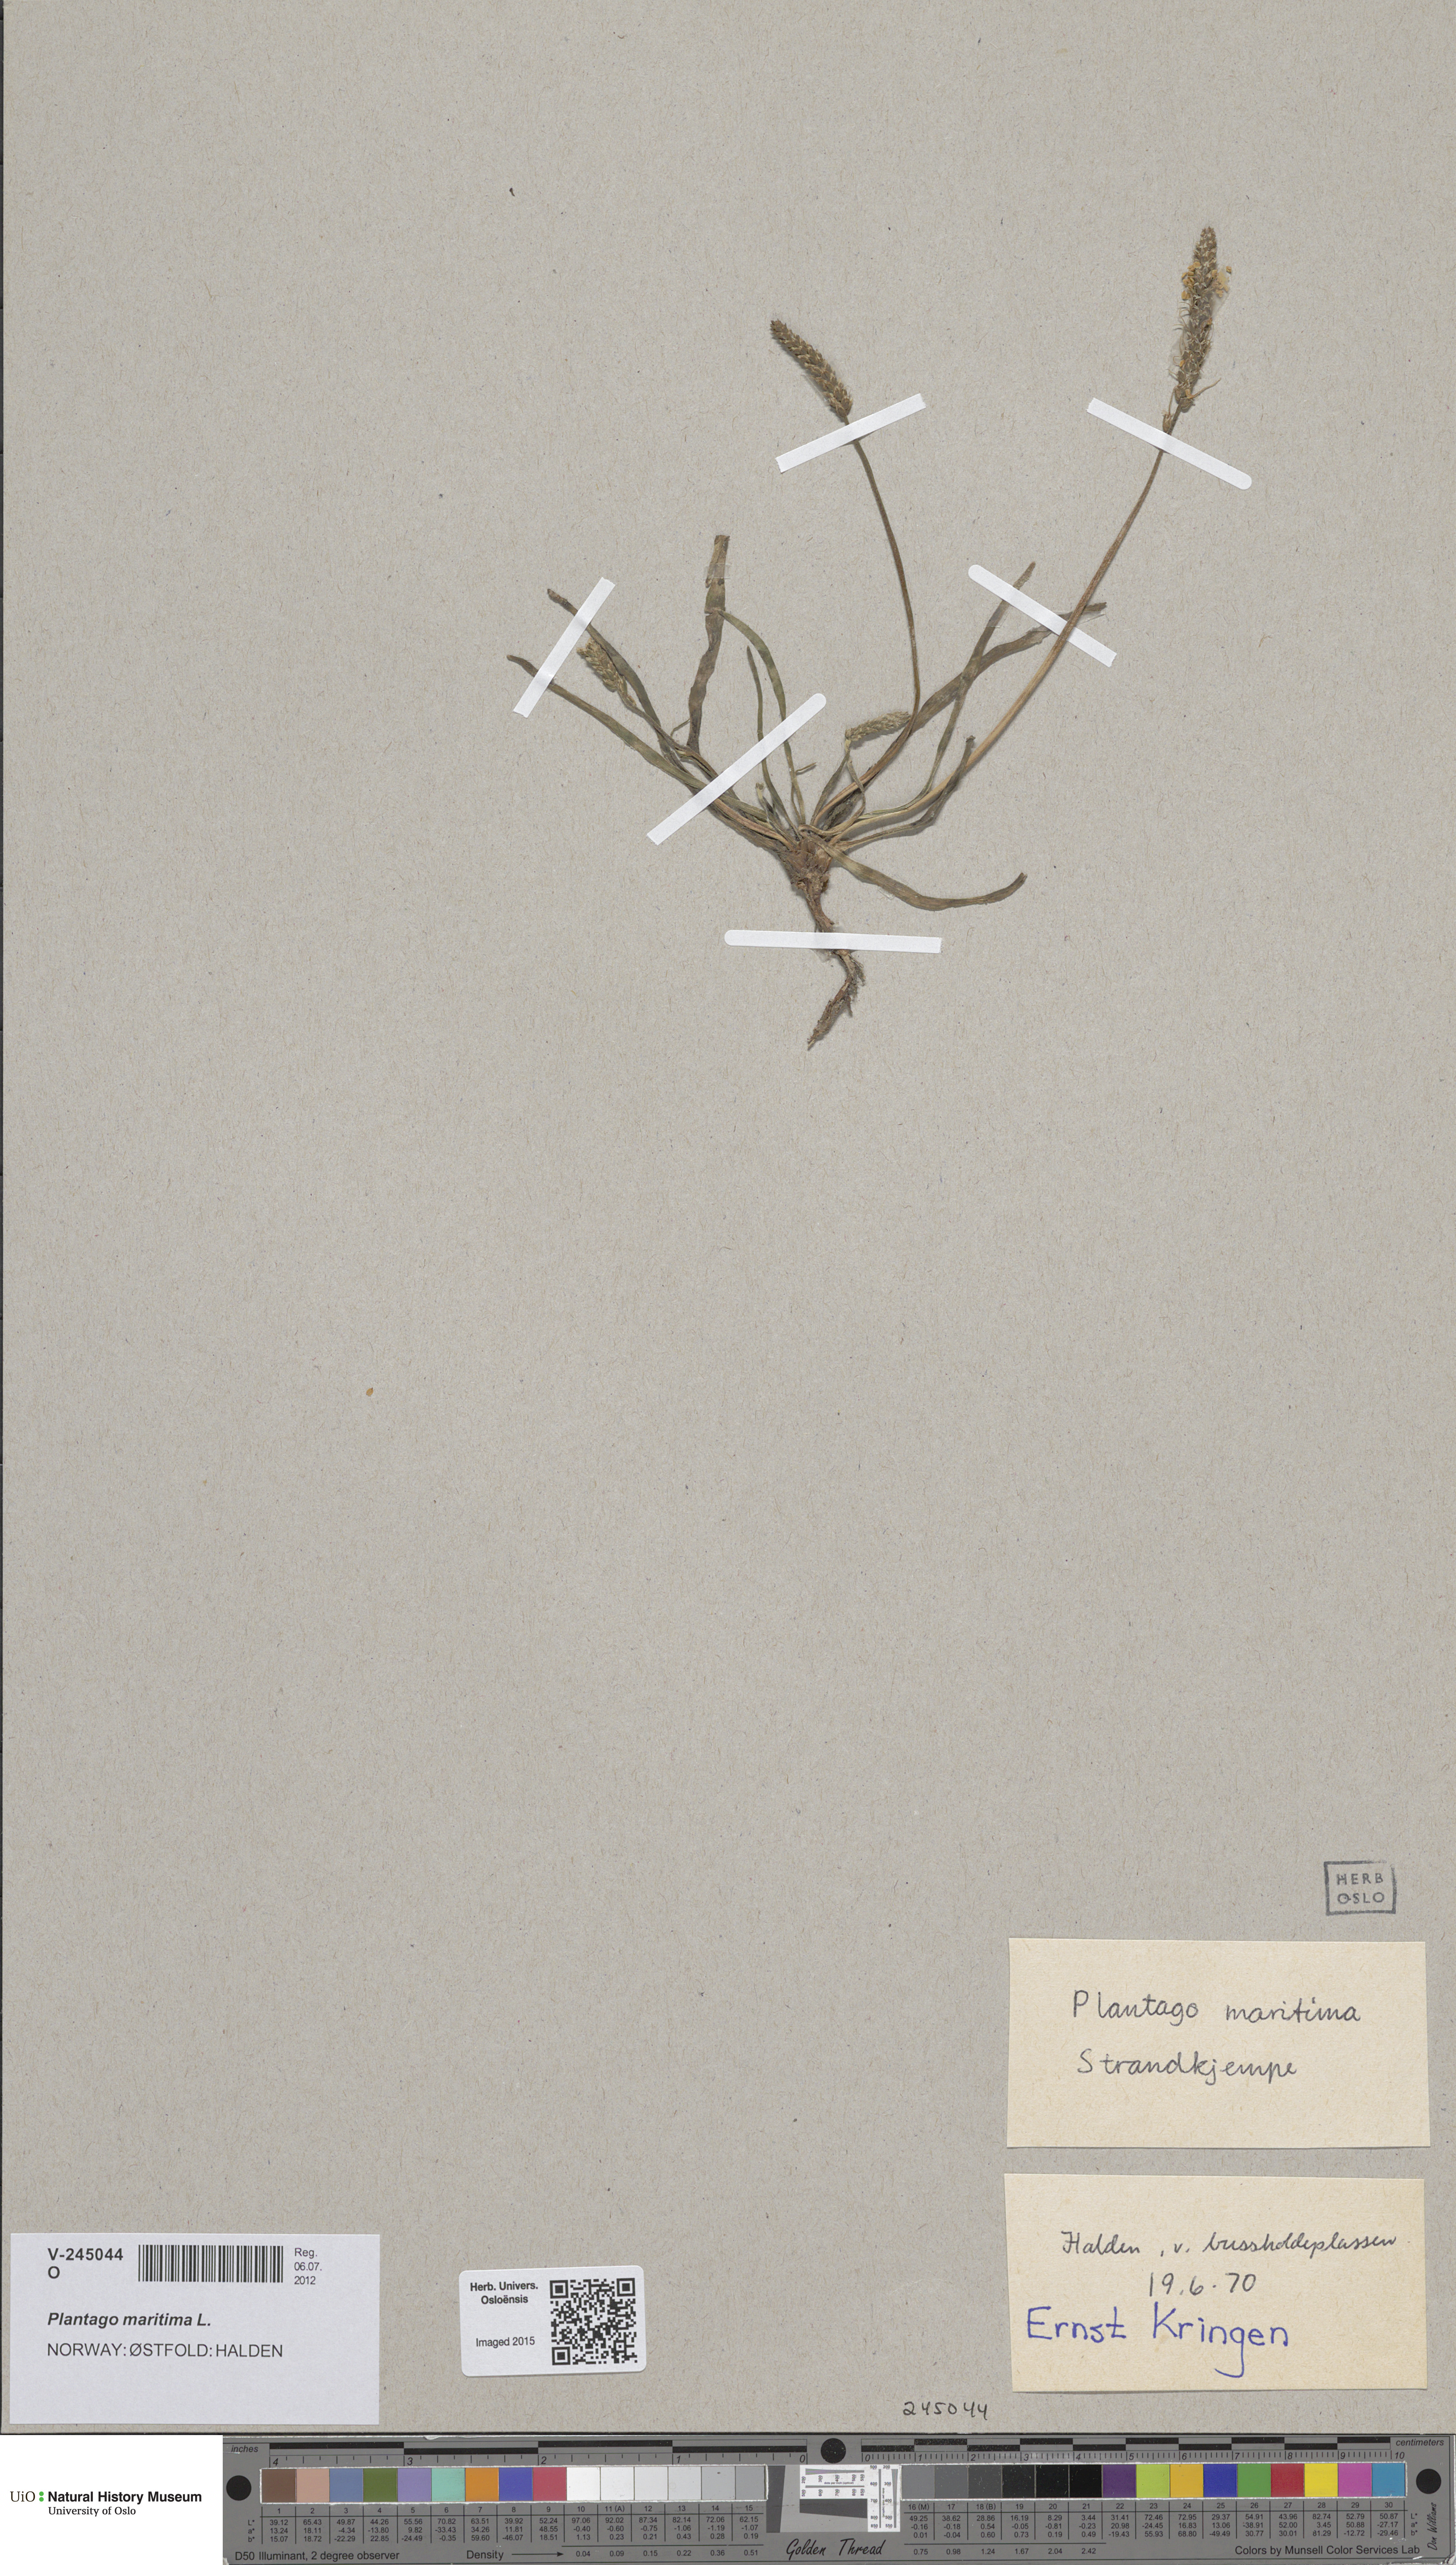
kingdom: Plantae
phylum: Tracheophyta
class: Magnoliopsida
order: Lamiales
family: Plantaginaceae
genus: Plantago
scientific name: Plantago maritima
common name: Sea plantain
